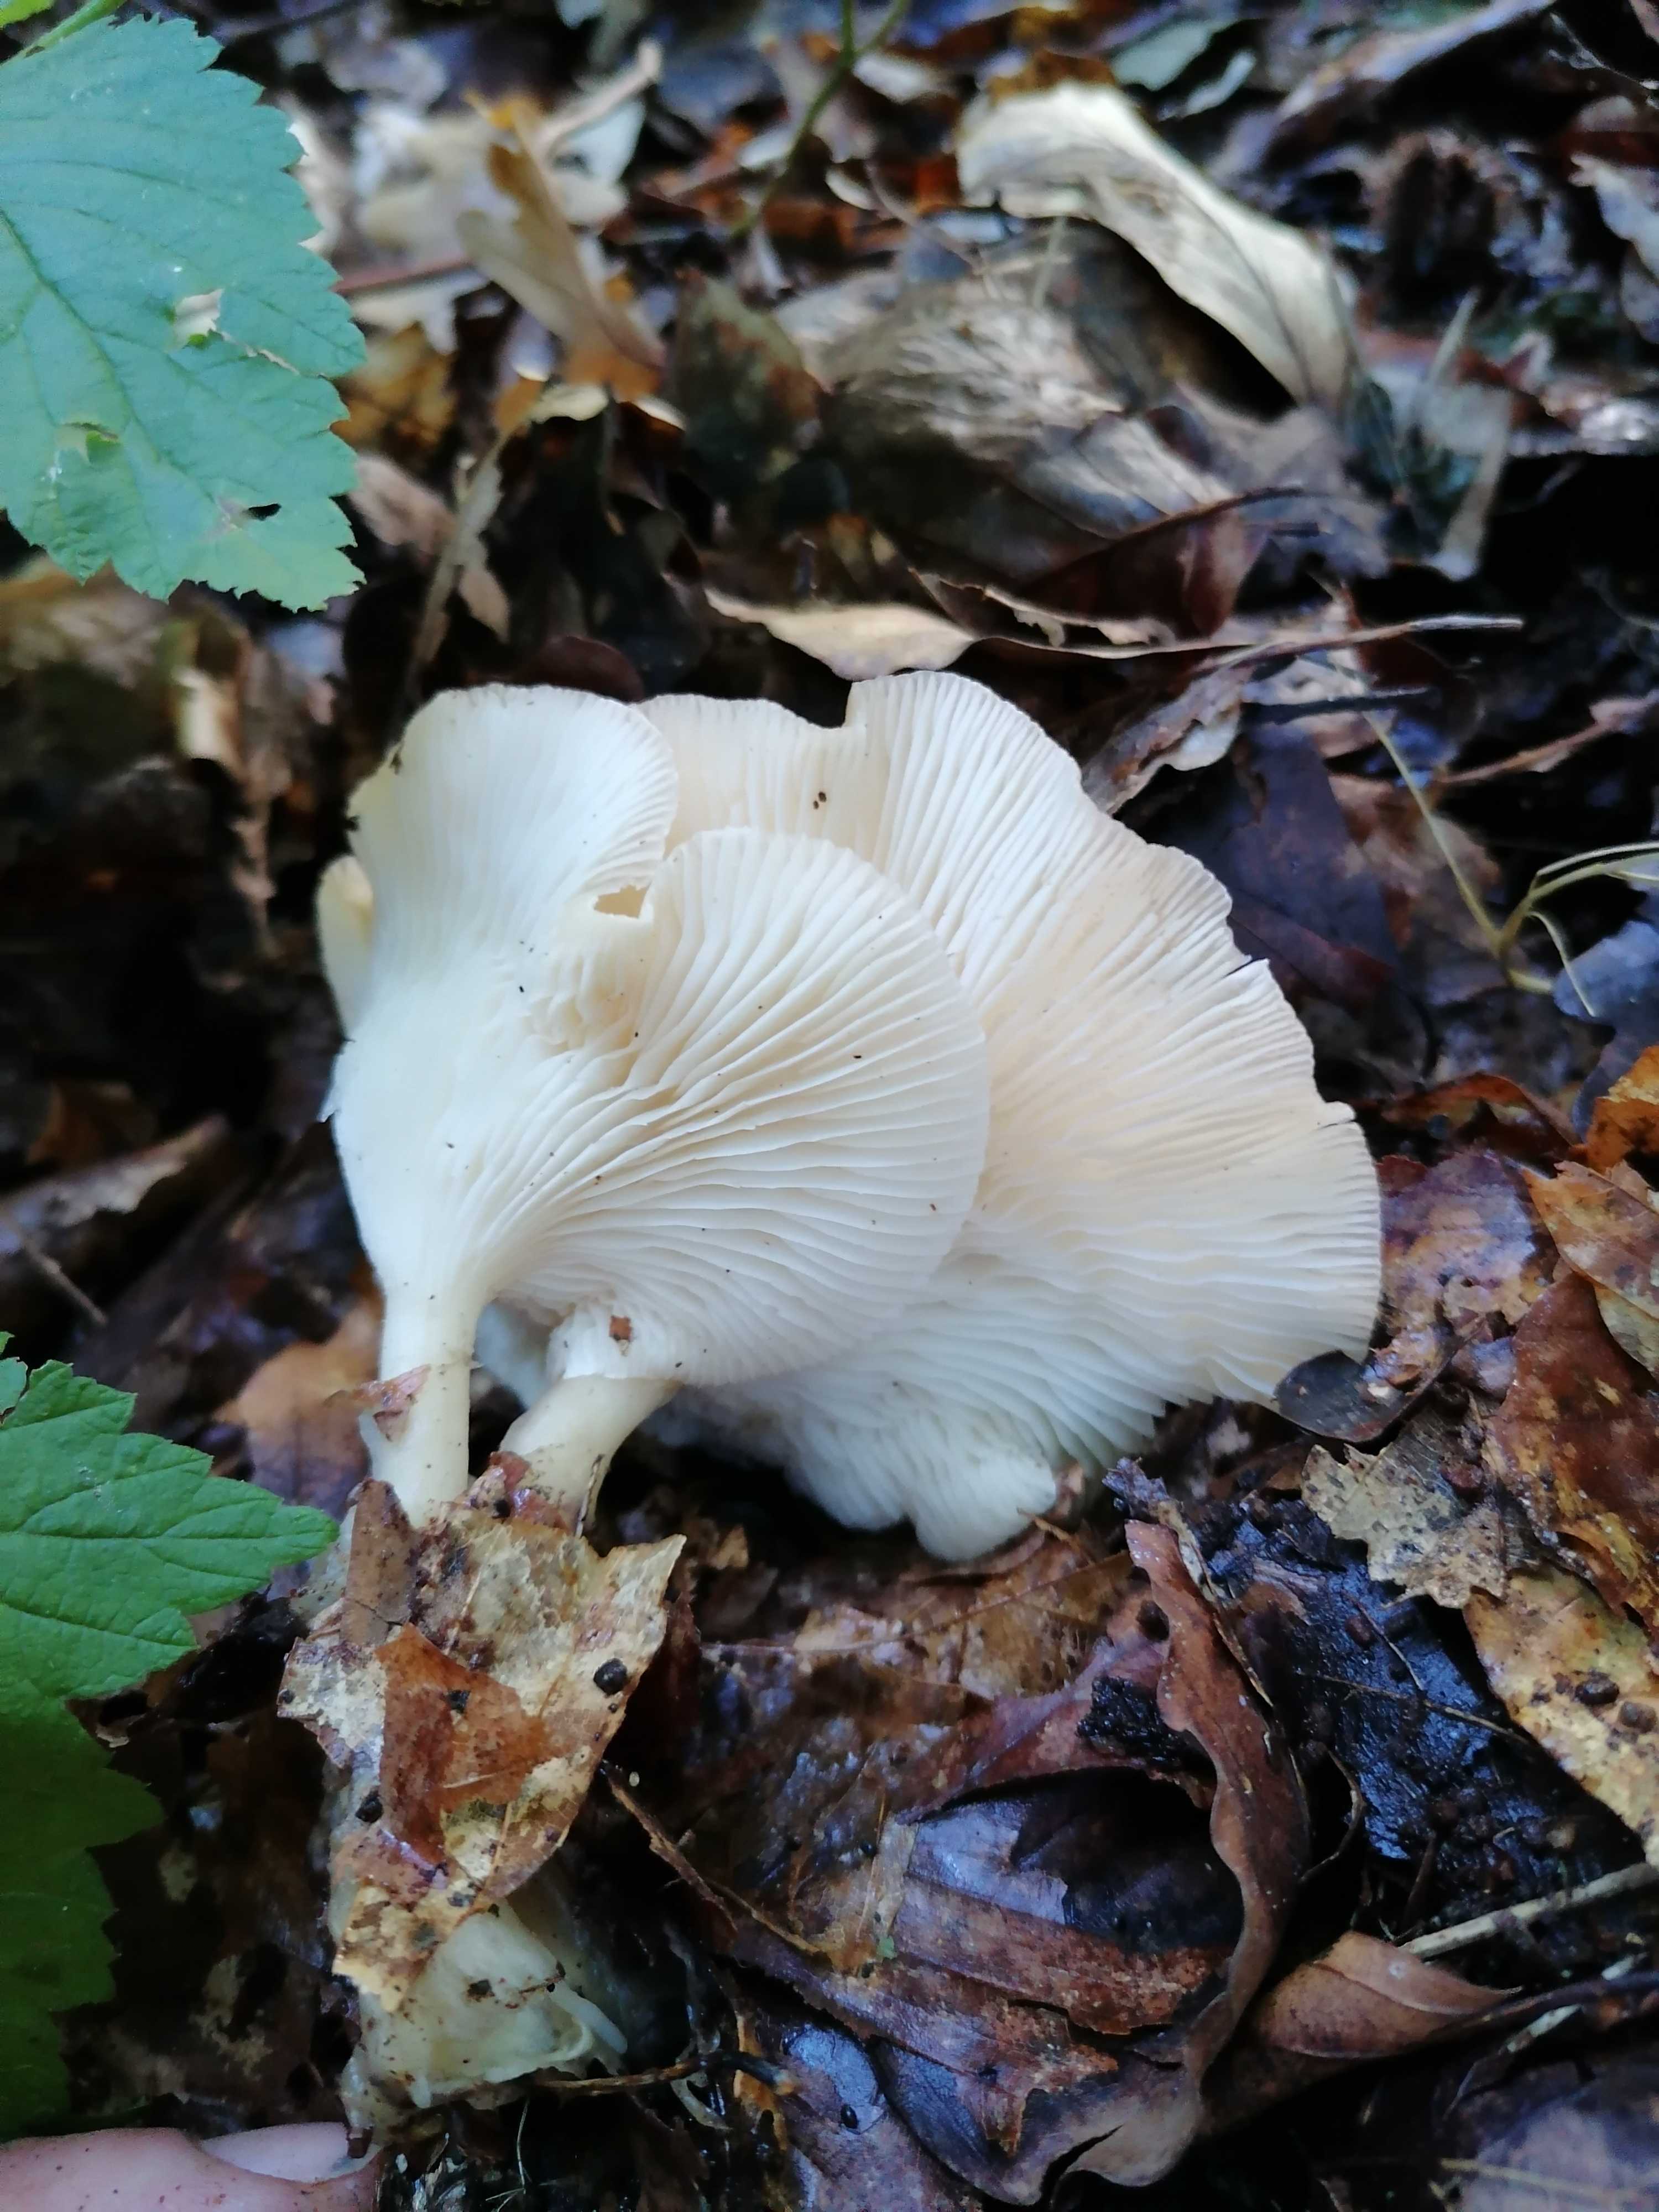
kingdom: Fungi
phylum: Basidiomycota
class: Agaricomycetes
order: Agaricales
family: Tricholomataceae
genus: Clitocybe
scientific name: Clitocybe
